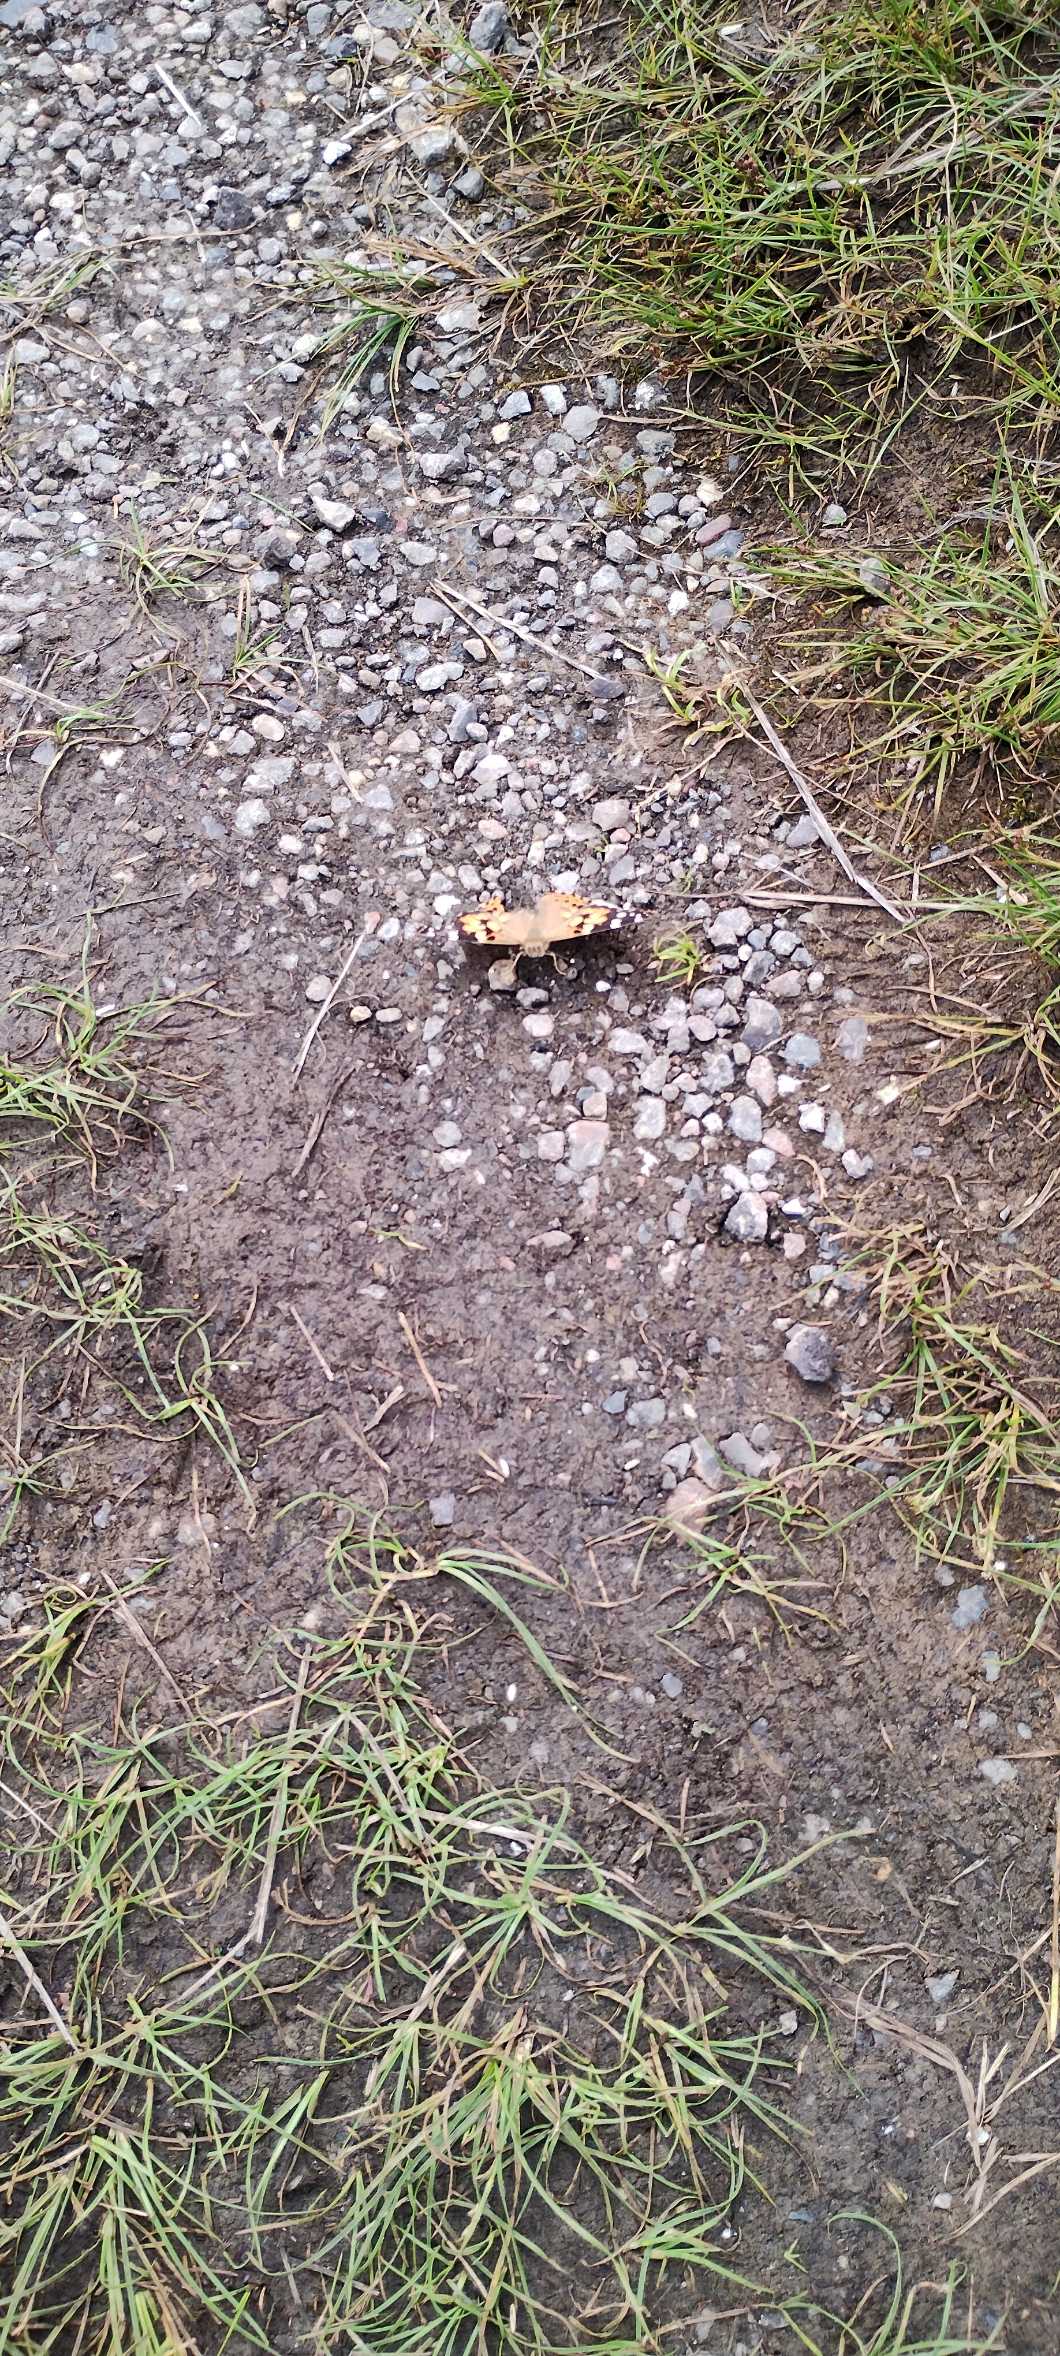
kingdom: Animalia
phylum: Arthropoda
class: Insecta
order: Lepidoptera
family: Nymphalidae
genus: Vanessa
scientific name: Vanessa cardui
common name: Tidselsommerfugl
